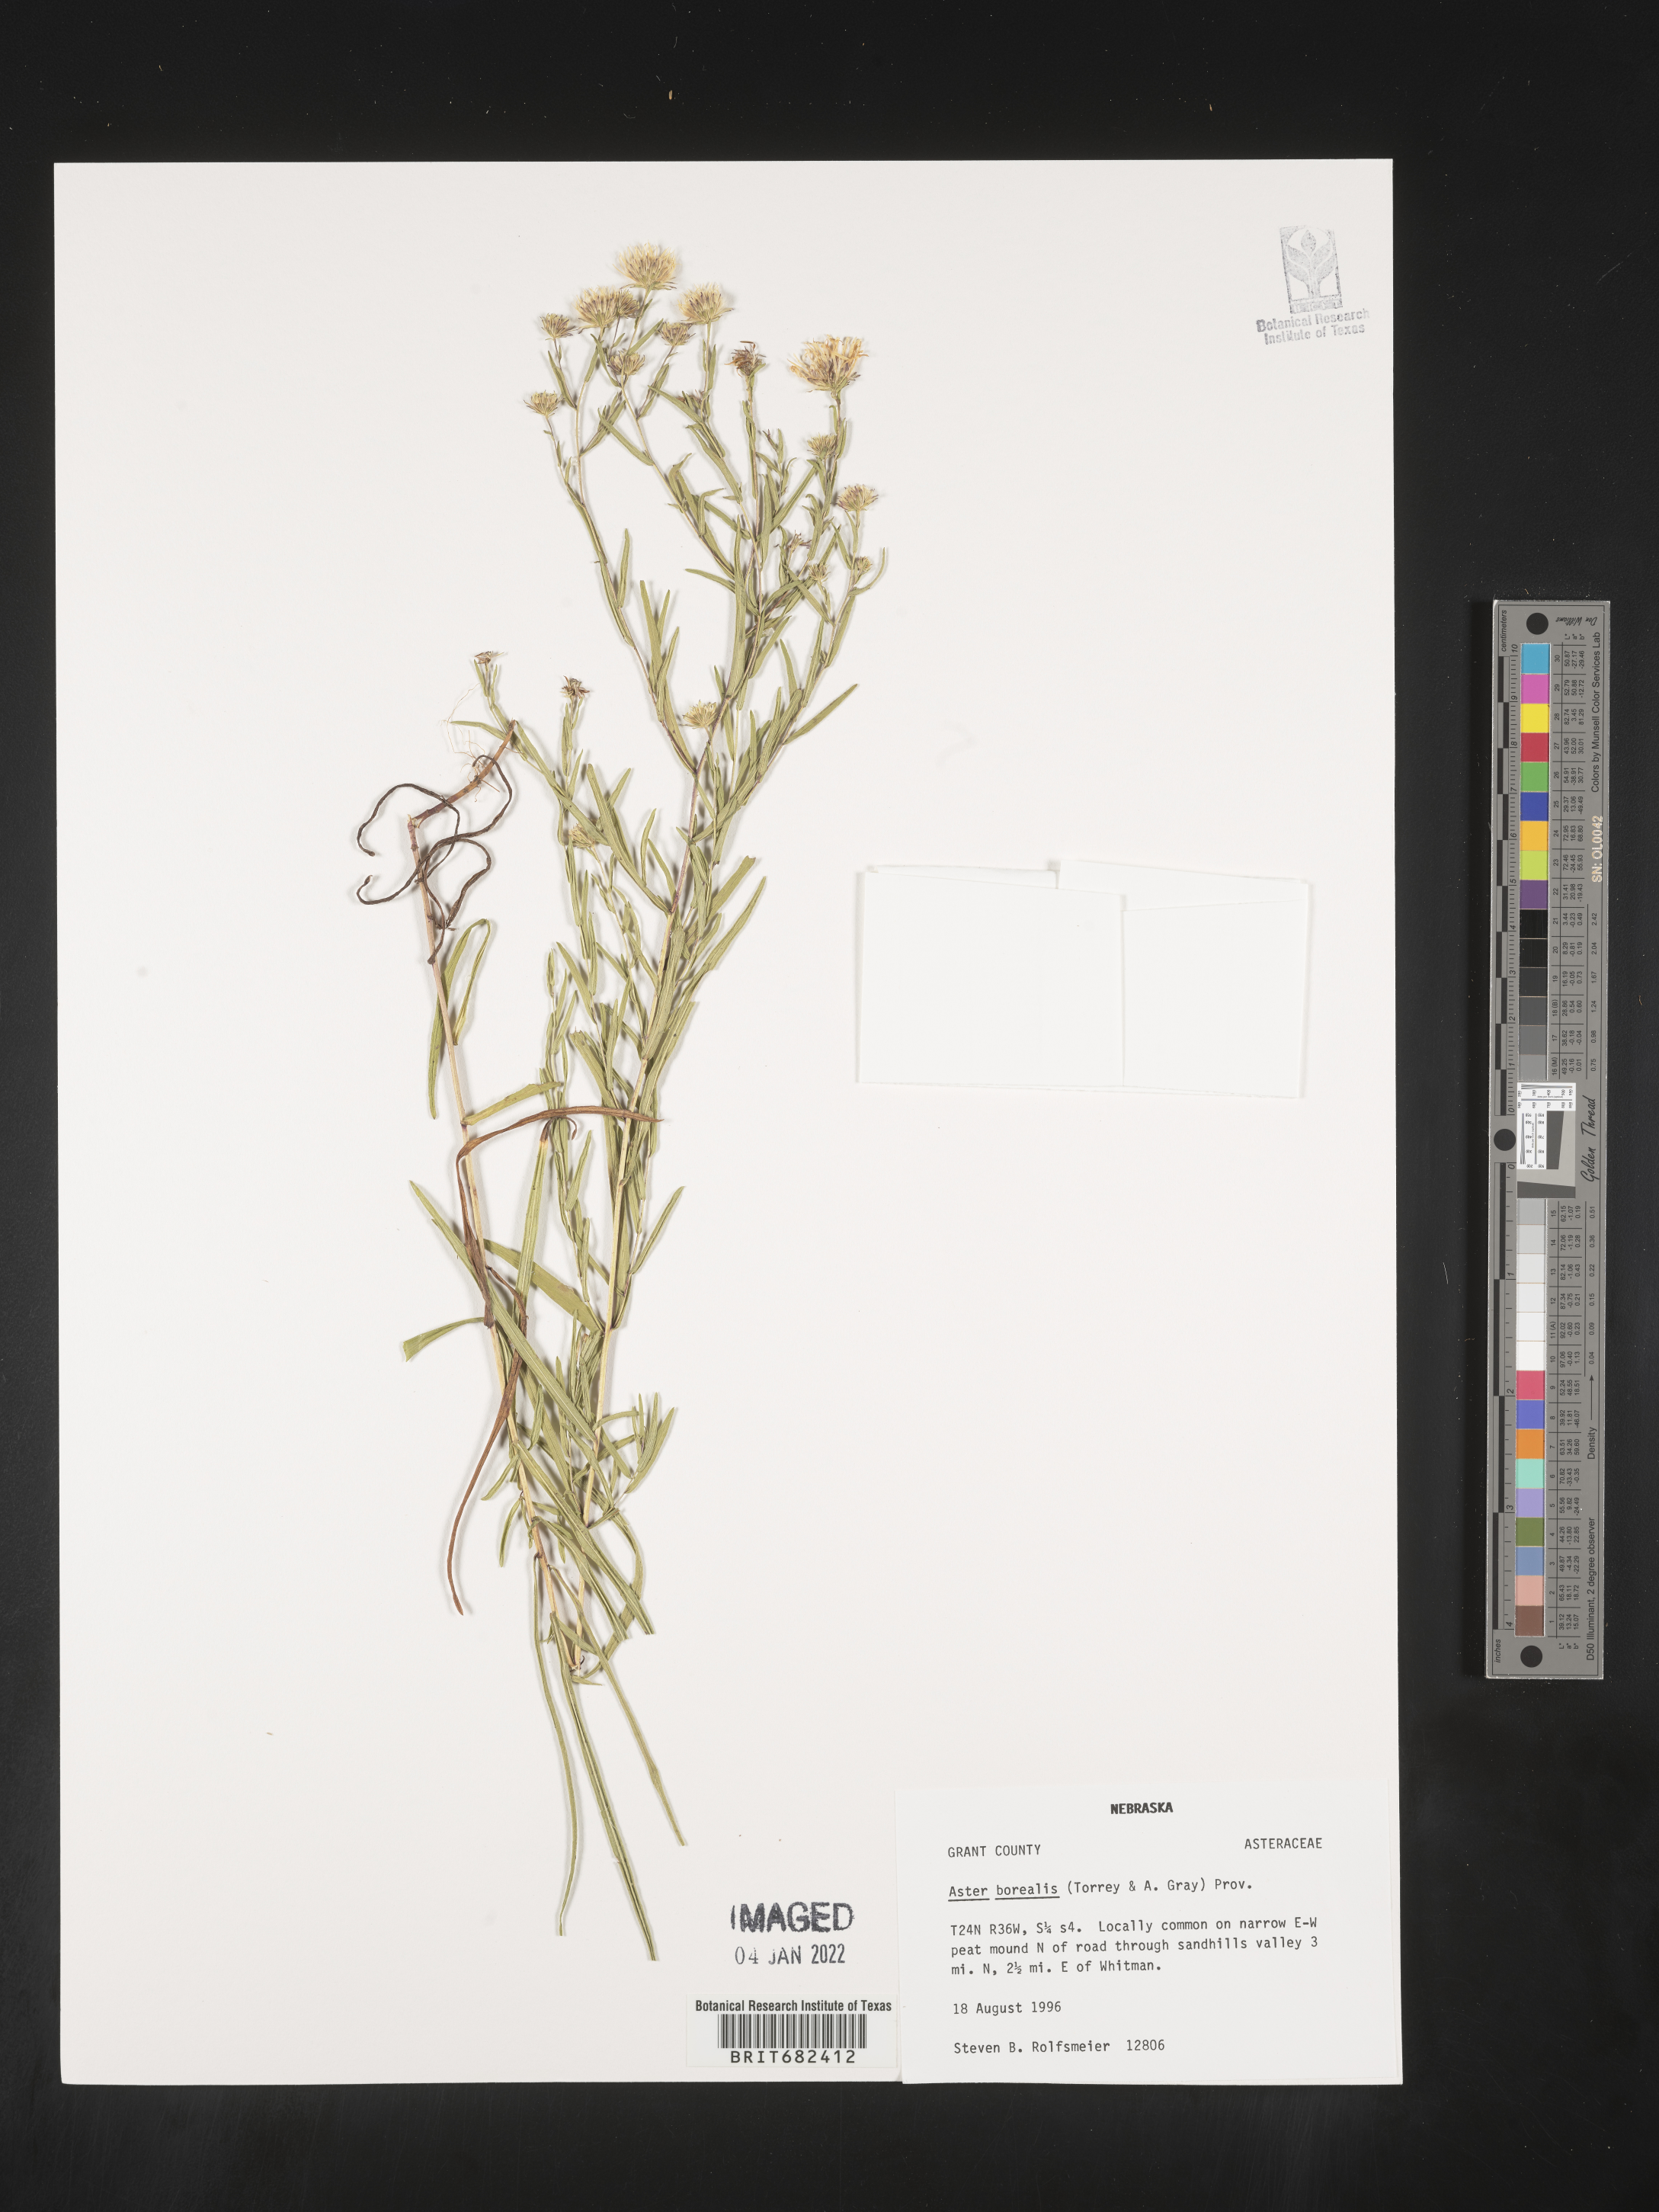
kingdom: Plantae
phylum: Tracheophyta
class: Magnoliopsida
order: Asterales
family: Asteraceae
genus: Aster
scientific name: Aster
